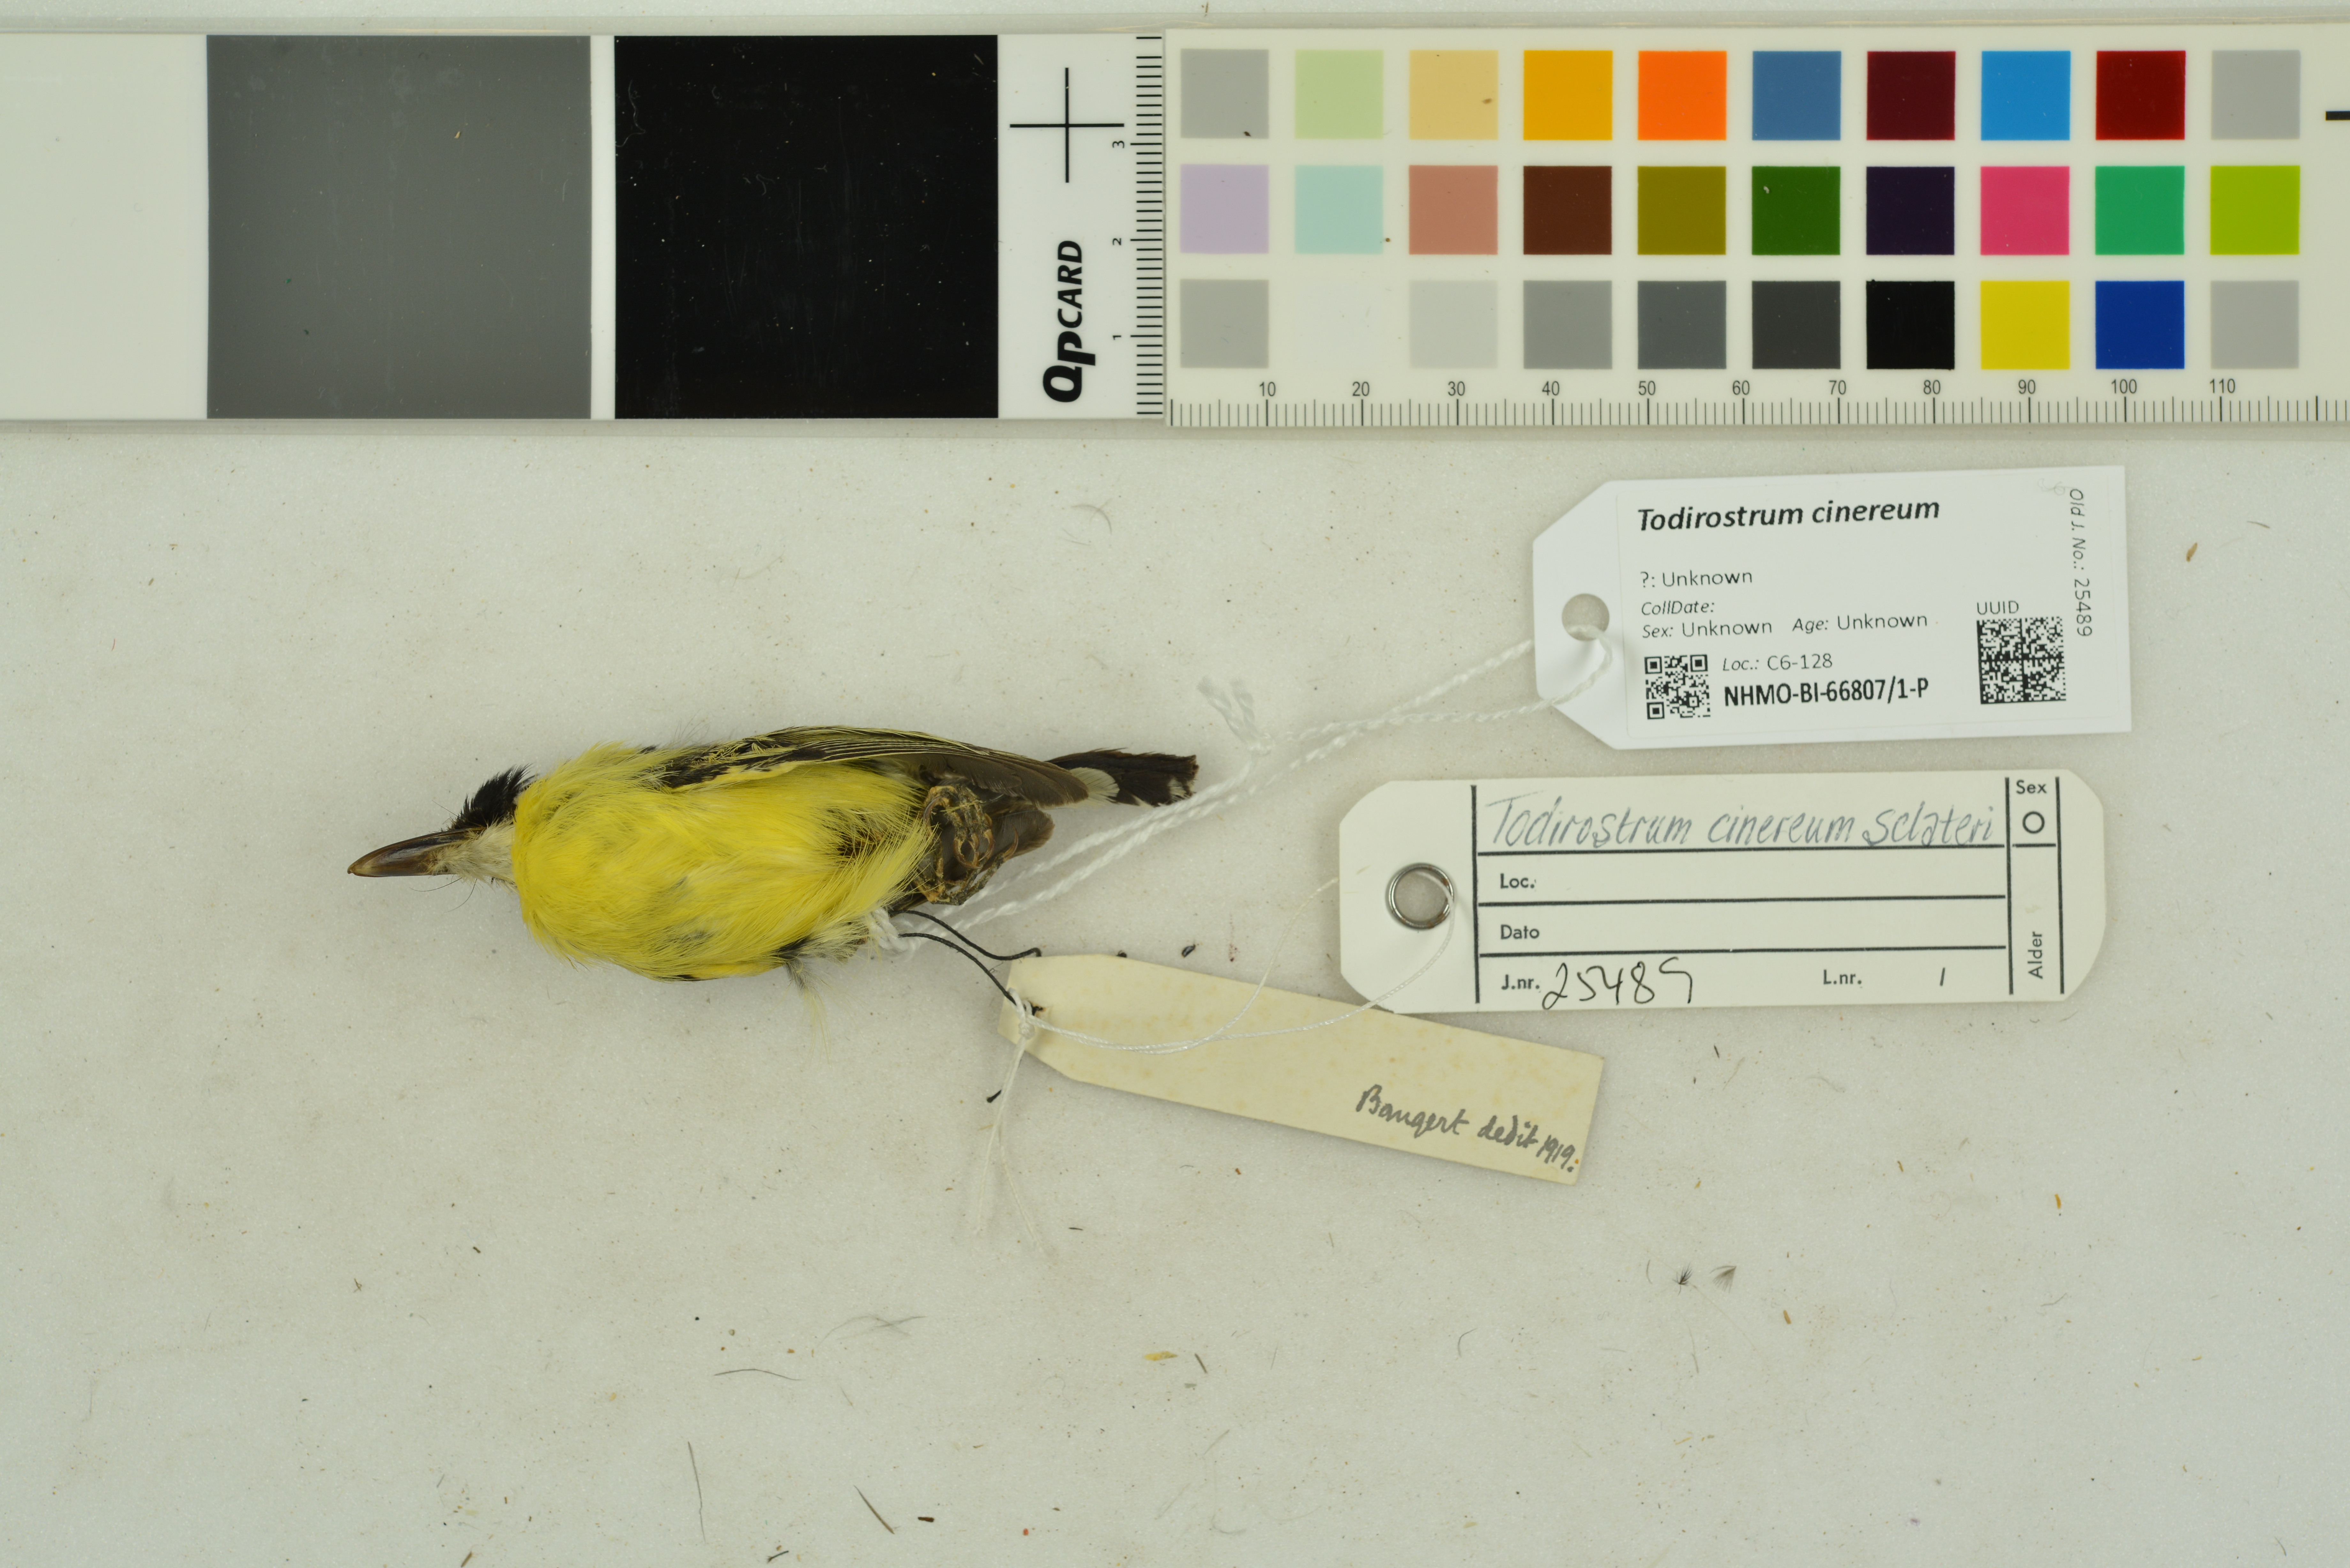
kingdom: Animalia
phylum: Chordata
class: Aves
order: Passeriformes
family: Tyrannidae
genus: Todirostrum
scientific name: Todirostrum cinereum
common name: Common tody-flycatcher
